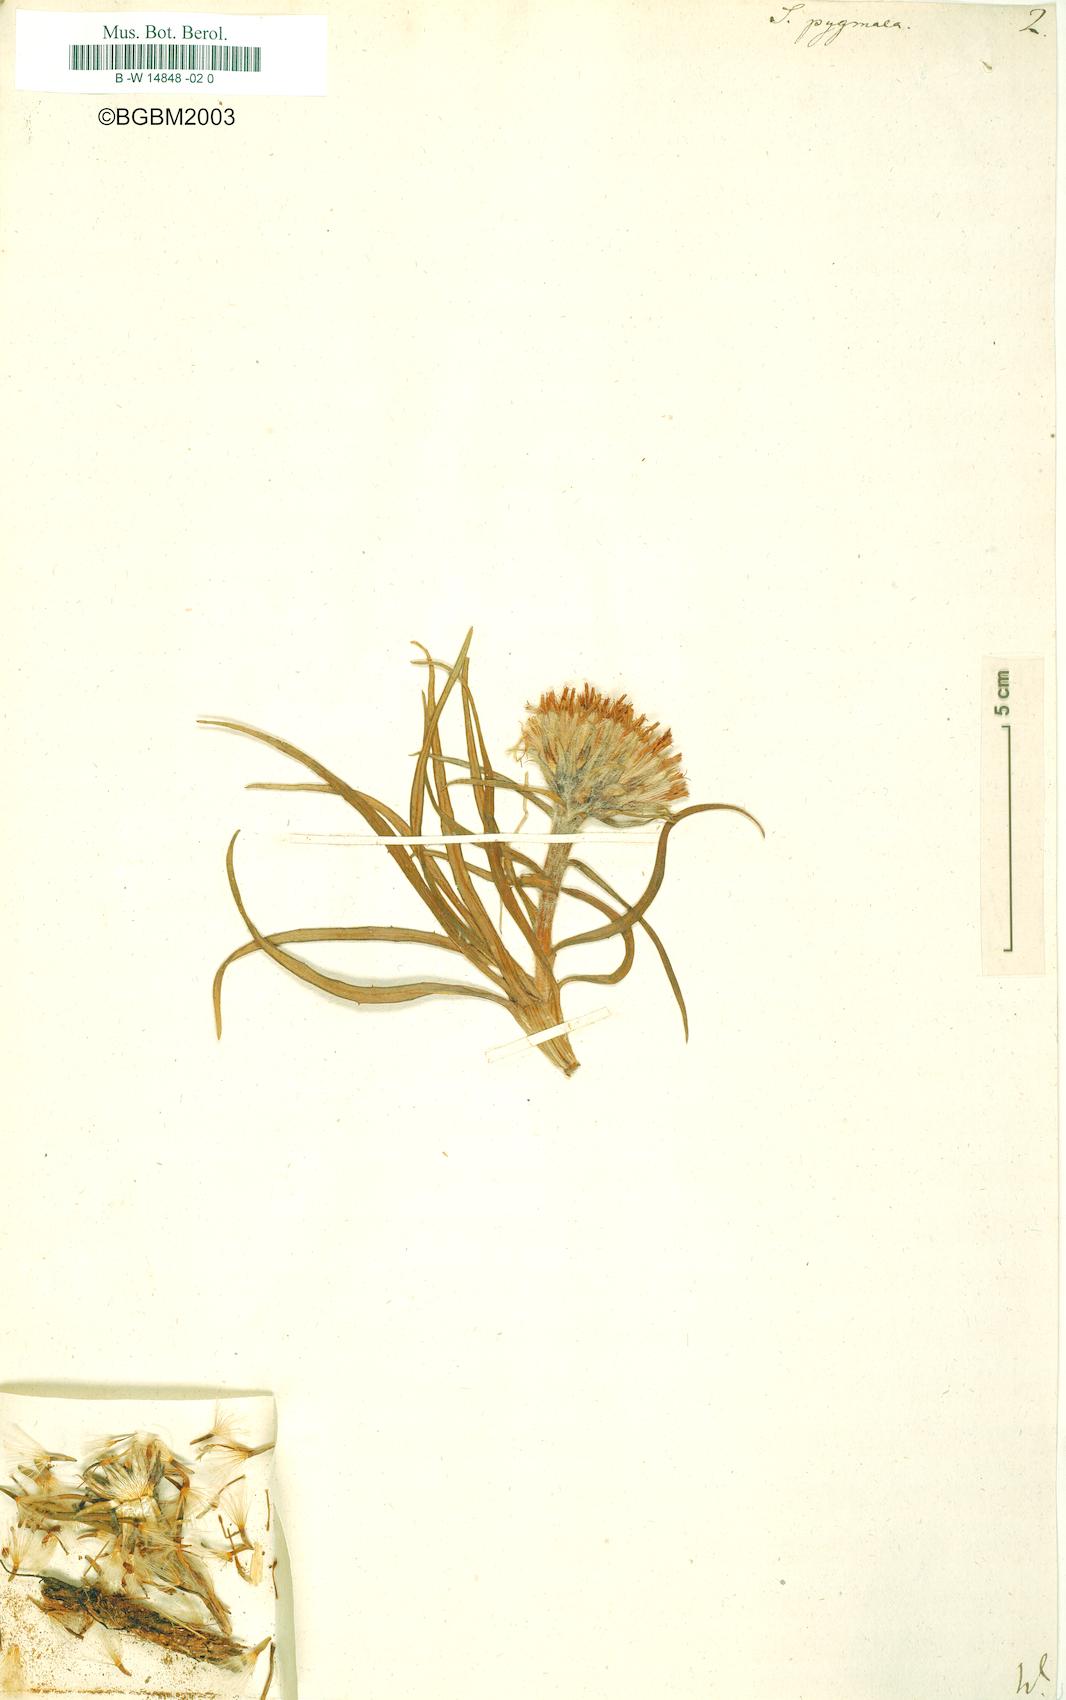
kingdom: Plantae
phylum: Tracheophyta
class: Magnoliopsida
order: Asterales
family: Asteraceae
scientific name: Asteraceae
